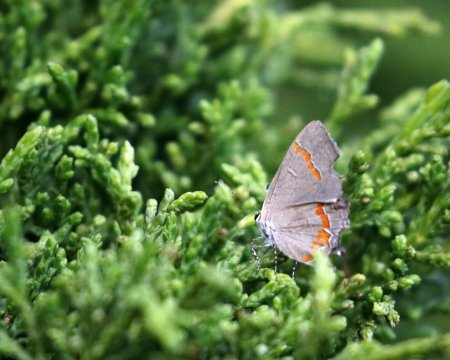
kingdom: Animalia
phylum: Arthropoda
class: Insecta
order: Lepidoptera
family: Lycaenidae
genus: Calycopis
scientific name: Calycopis cecrops
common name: Red-banded Hairstreak
